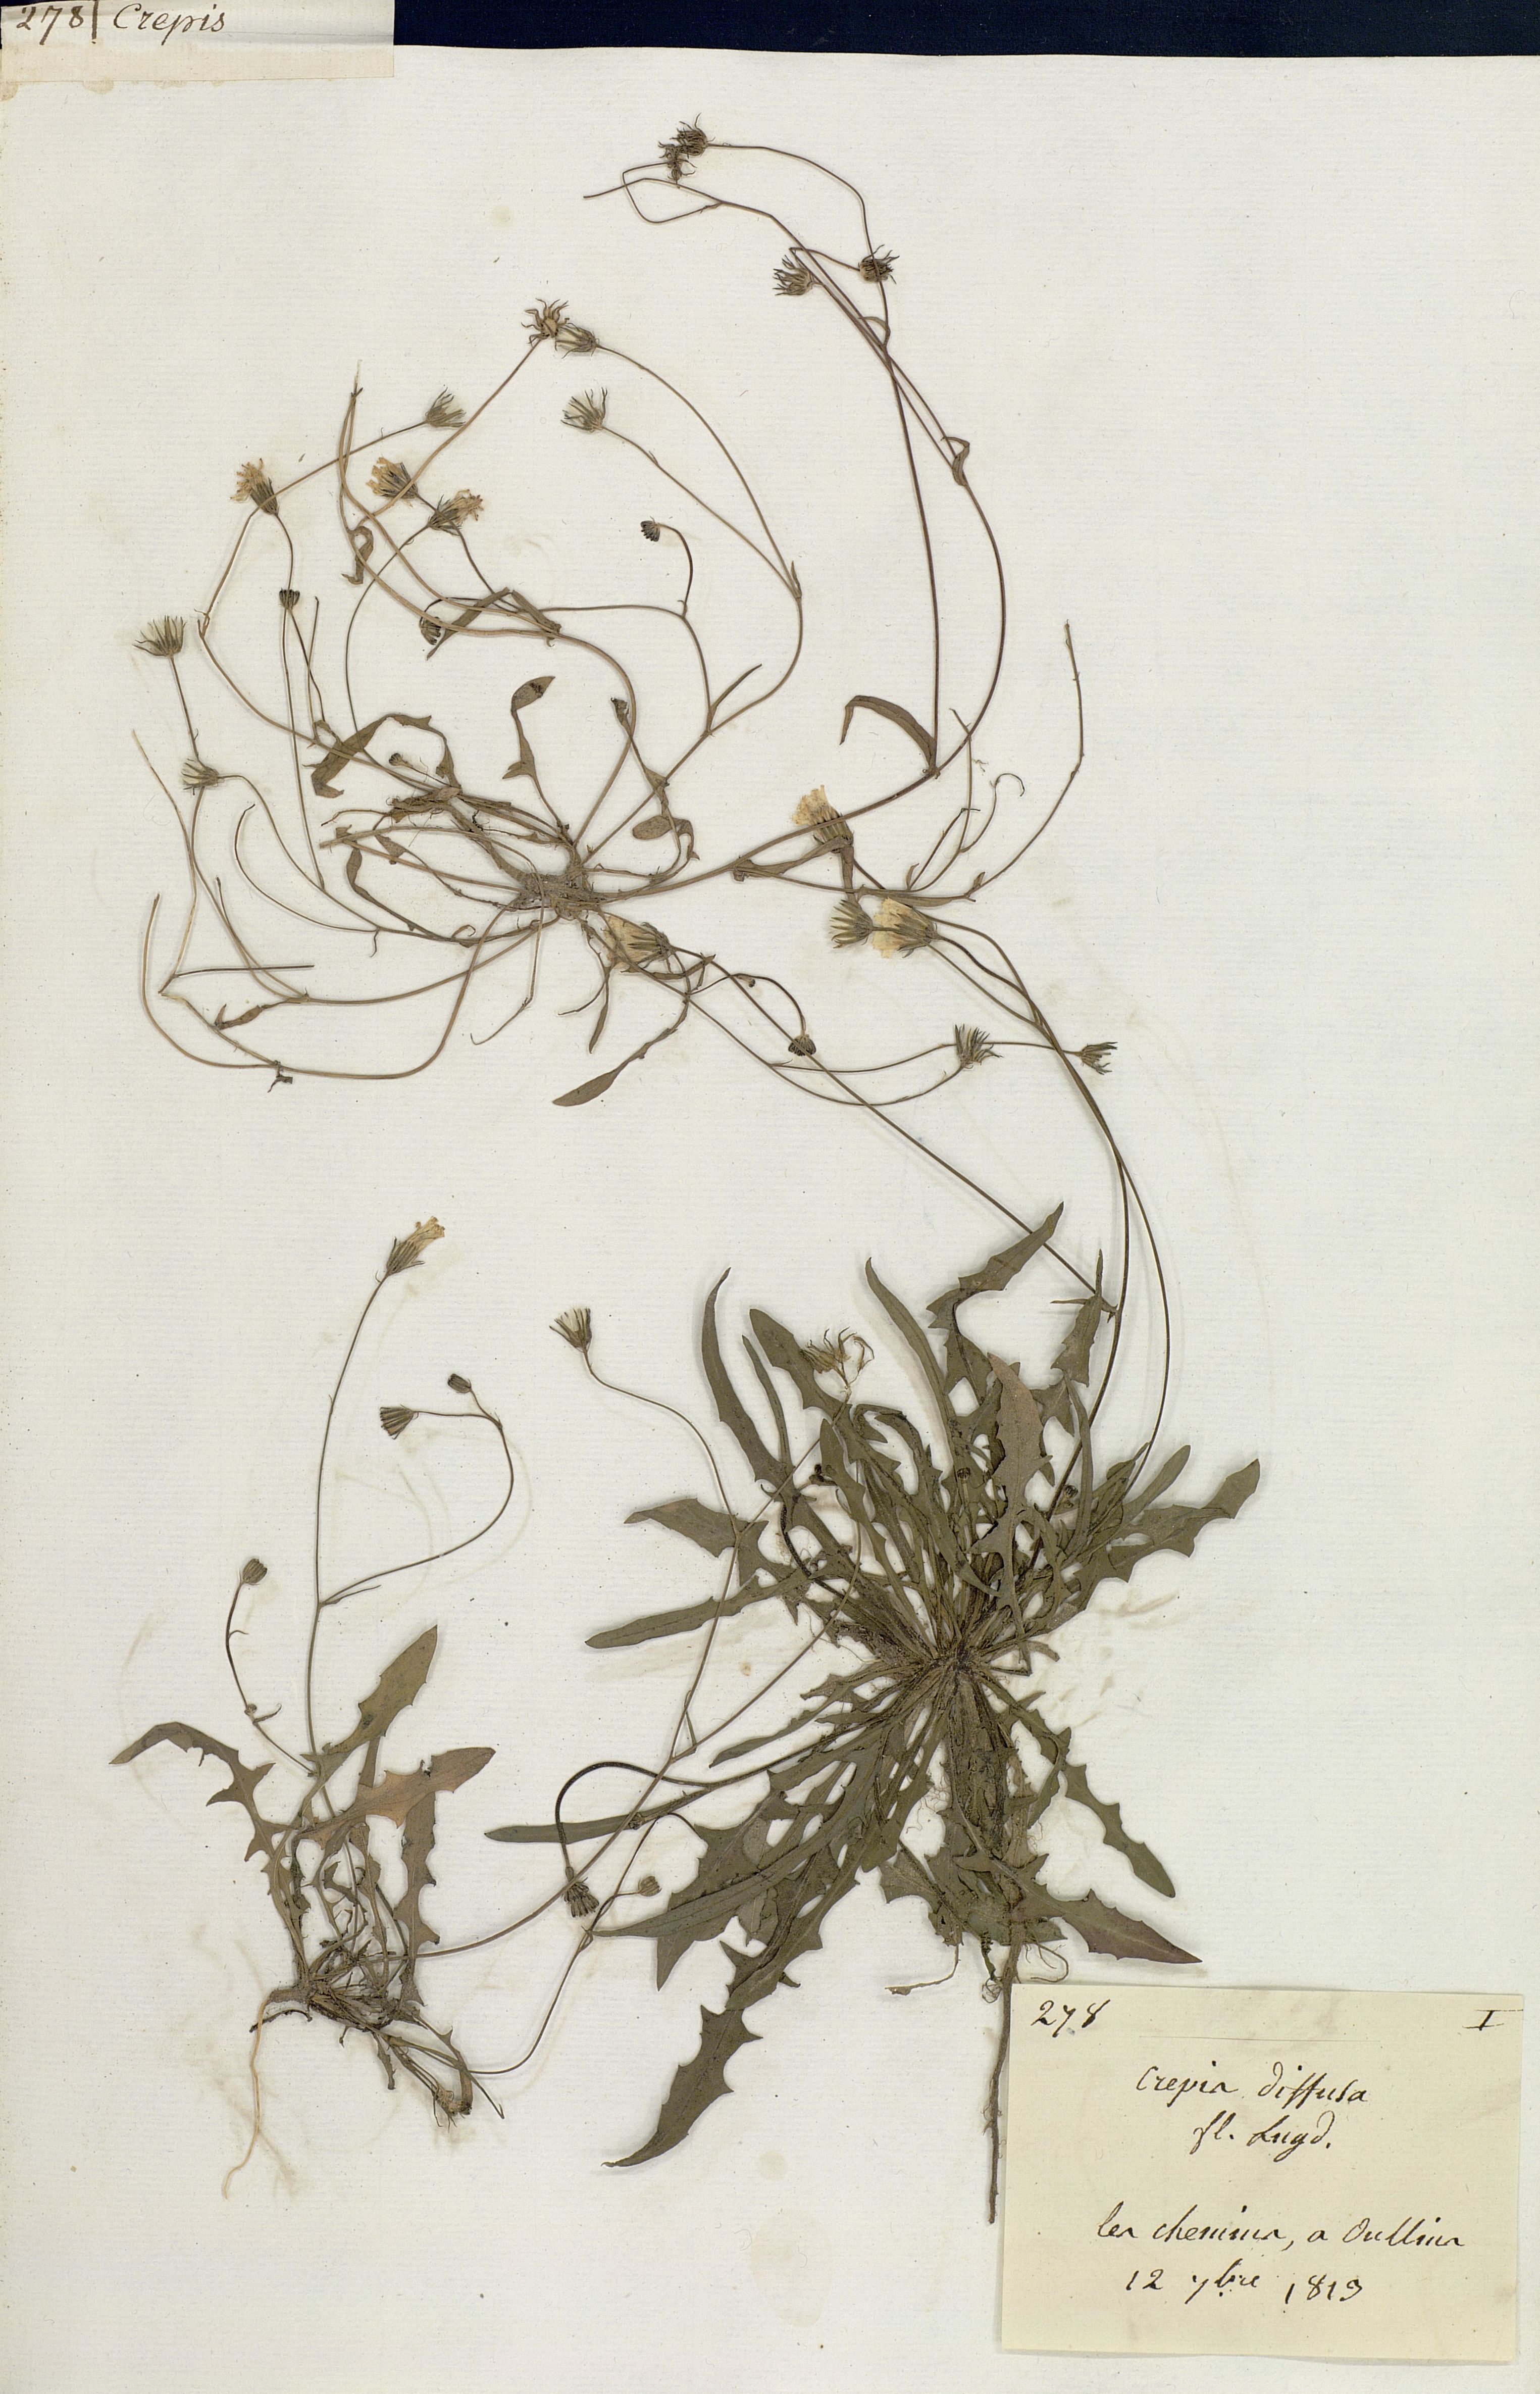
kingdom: Plantae
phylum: Tracheophyta
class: Magnoliopsida
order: Asterales
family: Asteraceae
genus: Crepis
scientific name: Crepis capillaris
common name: Smooth hawksbeard
